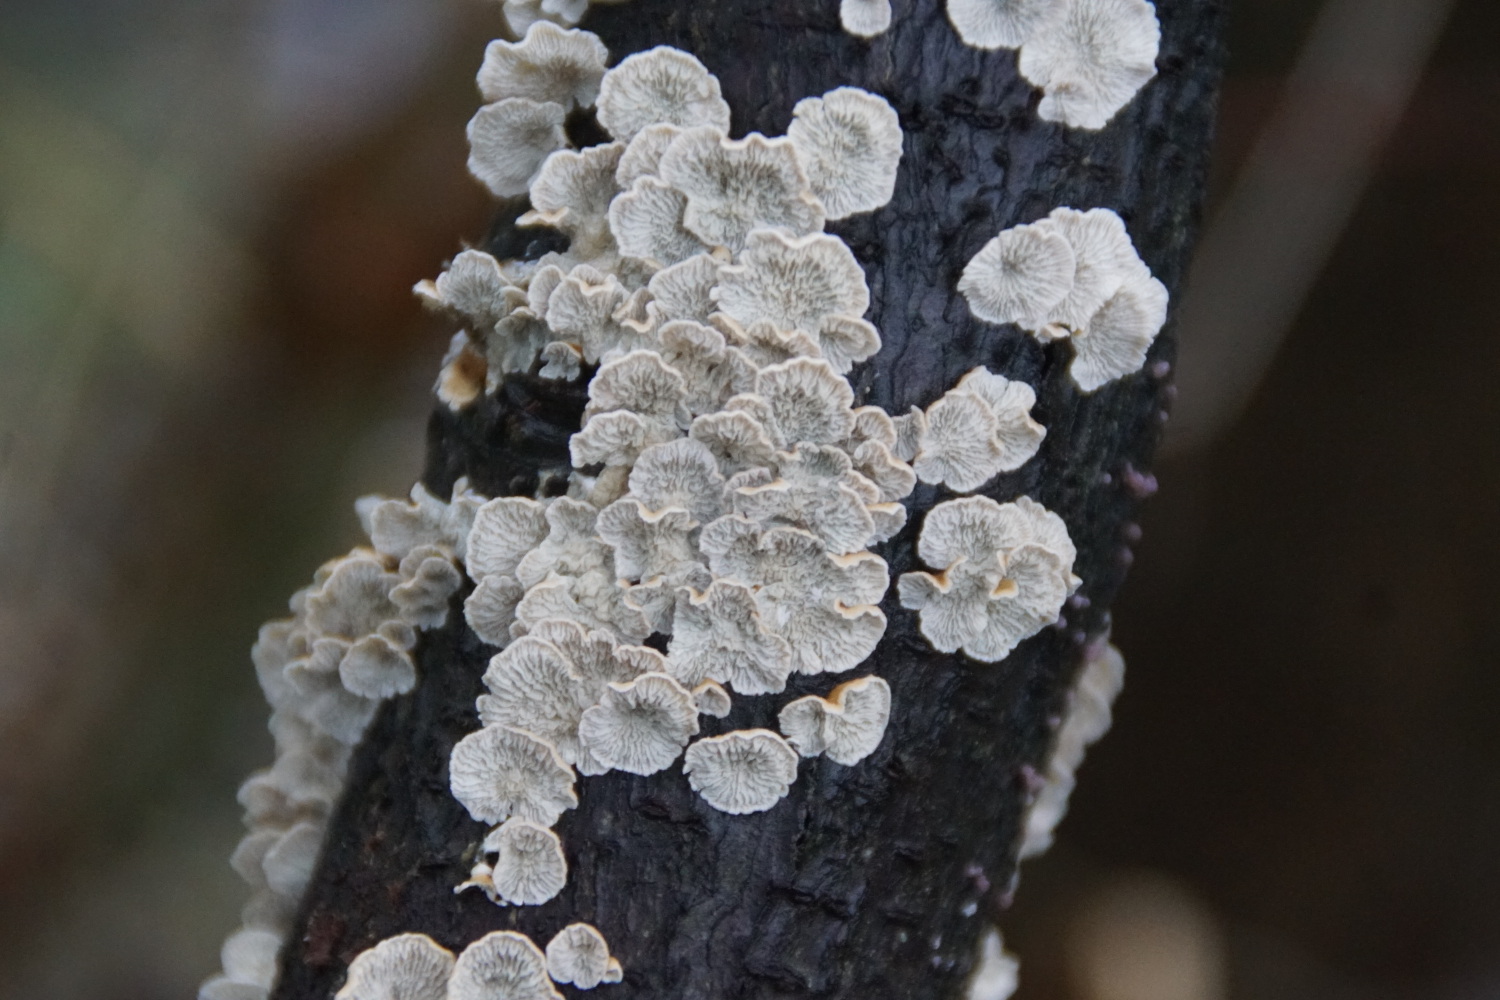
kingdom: Fungi
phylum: Basidiomycota
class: Agaricomycetes
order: Amylocorticiales
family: Amylocorticiaceae
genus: Plicaturopsis
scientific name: Plicaturopsis crispa
